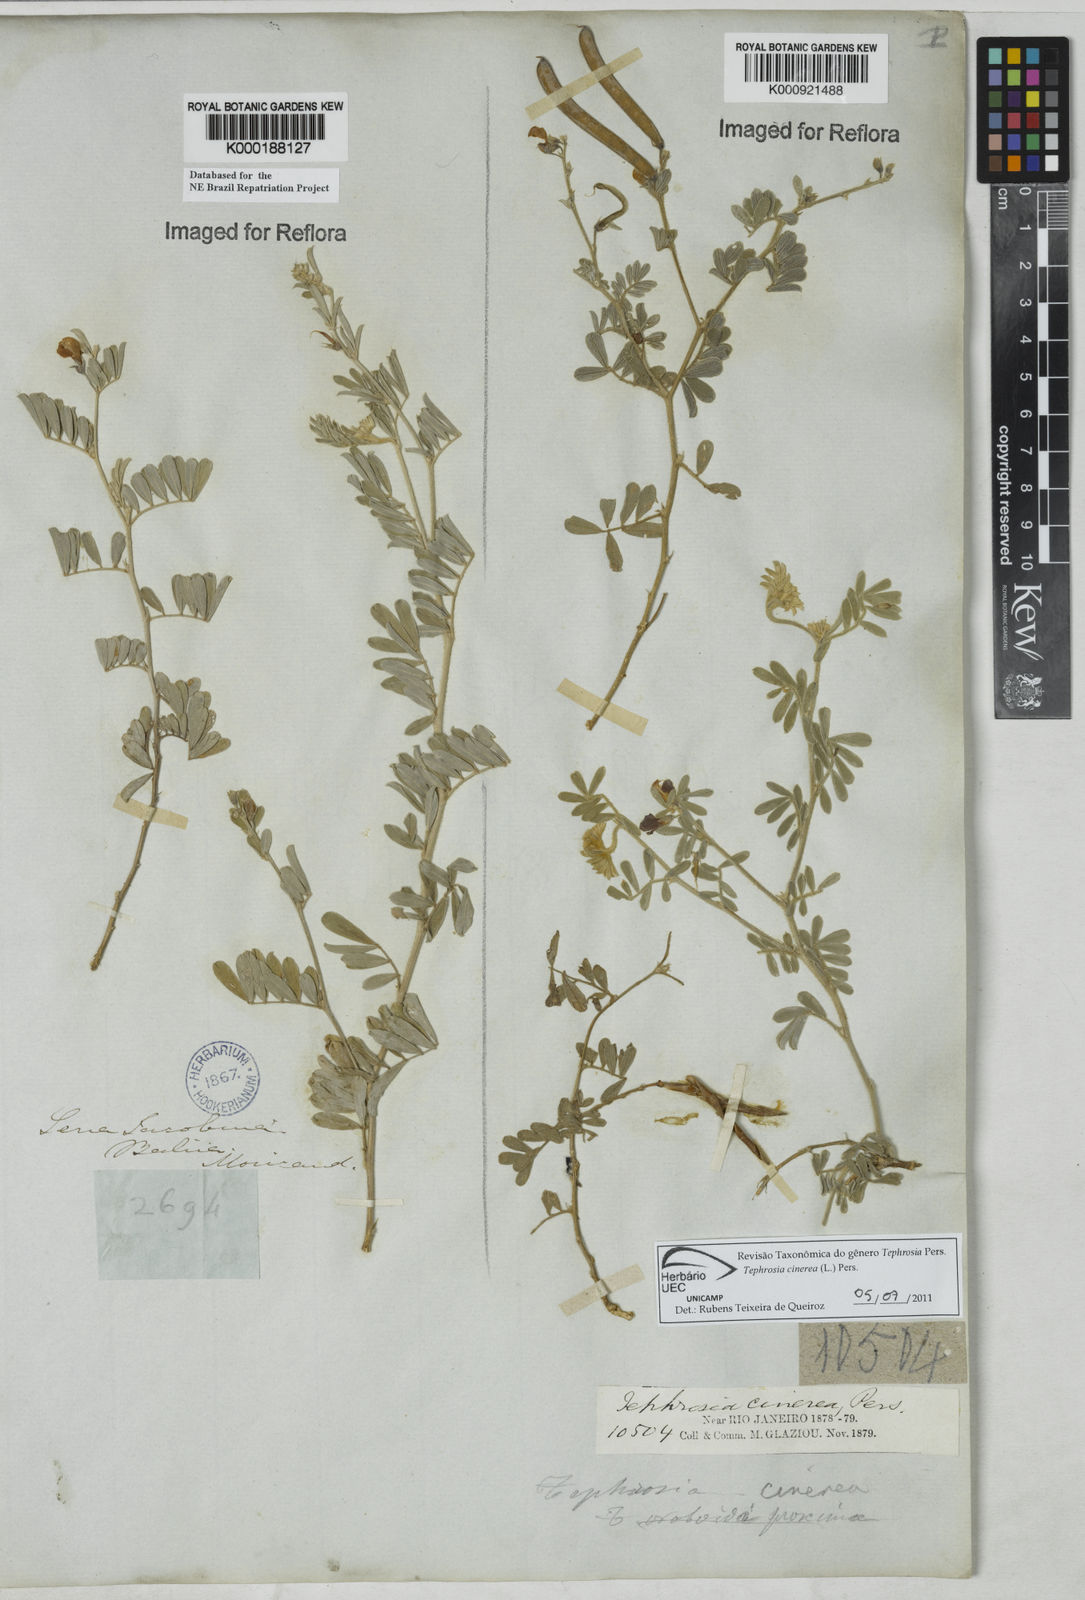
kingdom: Plantae
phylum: Tracheophyta
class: Magnoliopsida
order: Fabales
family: Fabaceae
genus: Tephrosia
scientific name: Tephrosia cinerea
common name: Ashen hoarypea
